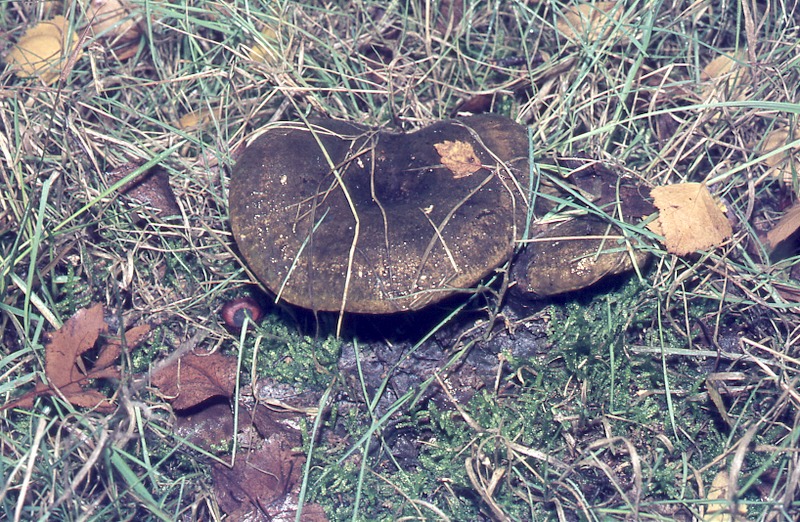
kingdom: Fungi
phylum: Basidiomycota
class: Agaricomycetes
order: Russulales
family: Russulaceae
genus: Lactarius
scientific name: Lactarius necator
